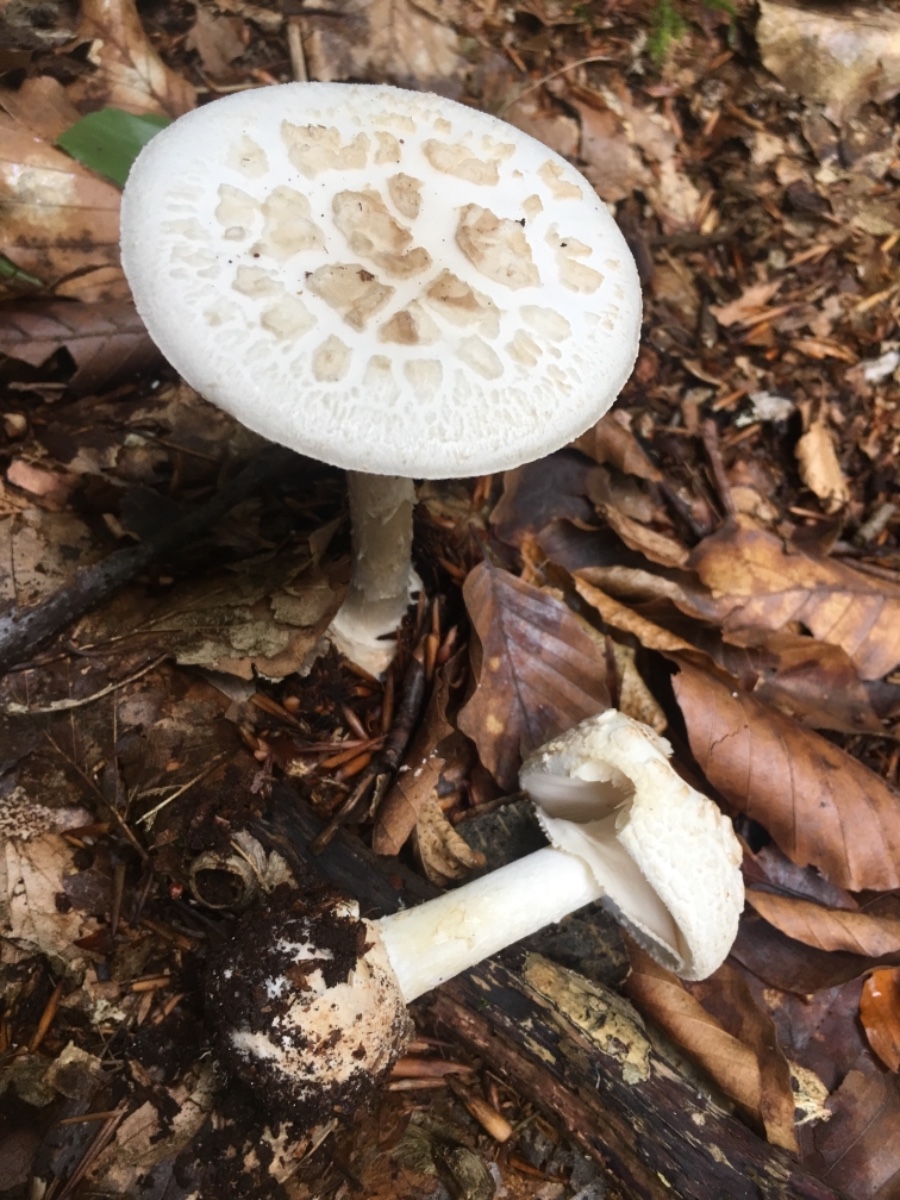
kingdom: Fungi
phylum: Basidiomycota
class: Agaricomycetes
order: Agaricales
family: Amanitaceae
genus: Amanita
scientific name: Amanita citrina
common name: False death-cap
